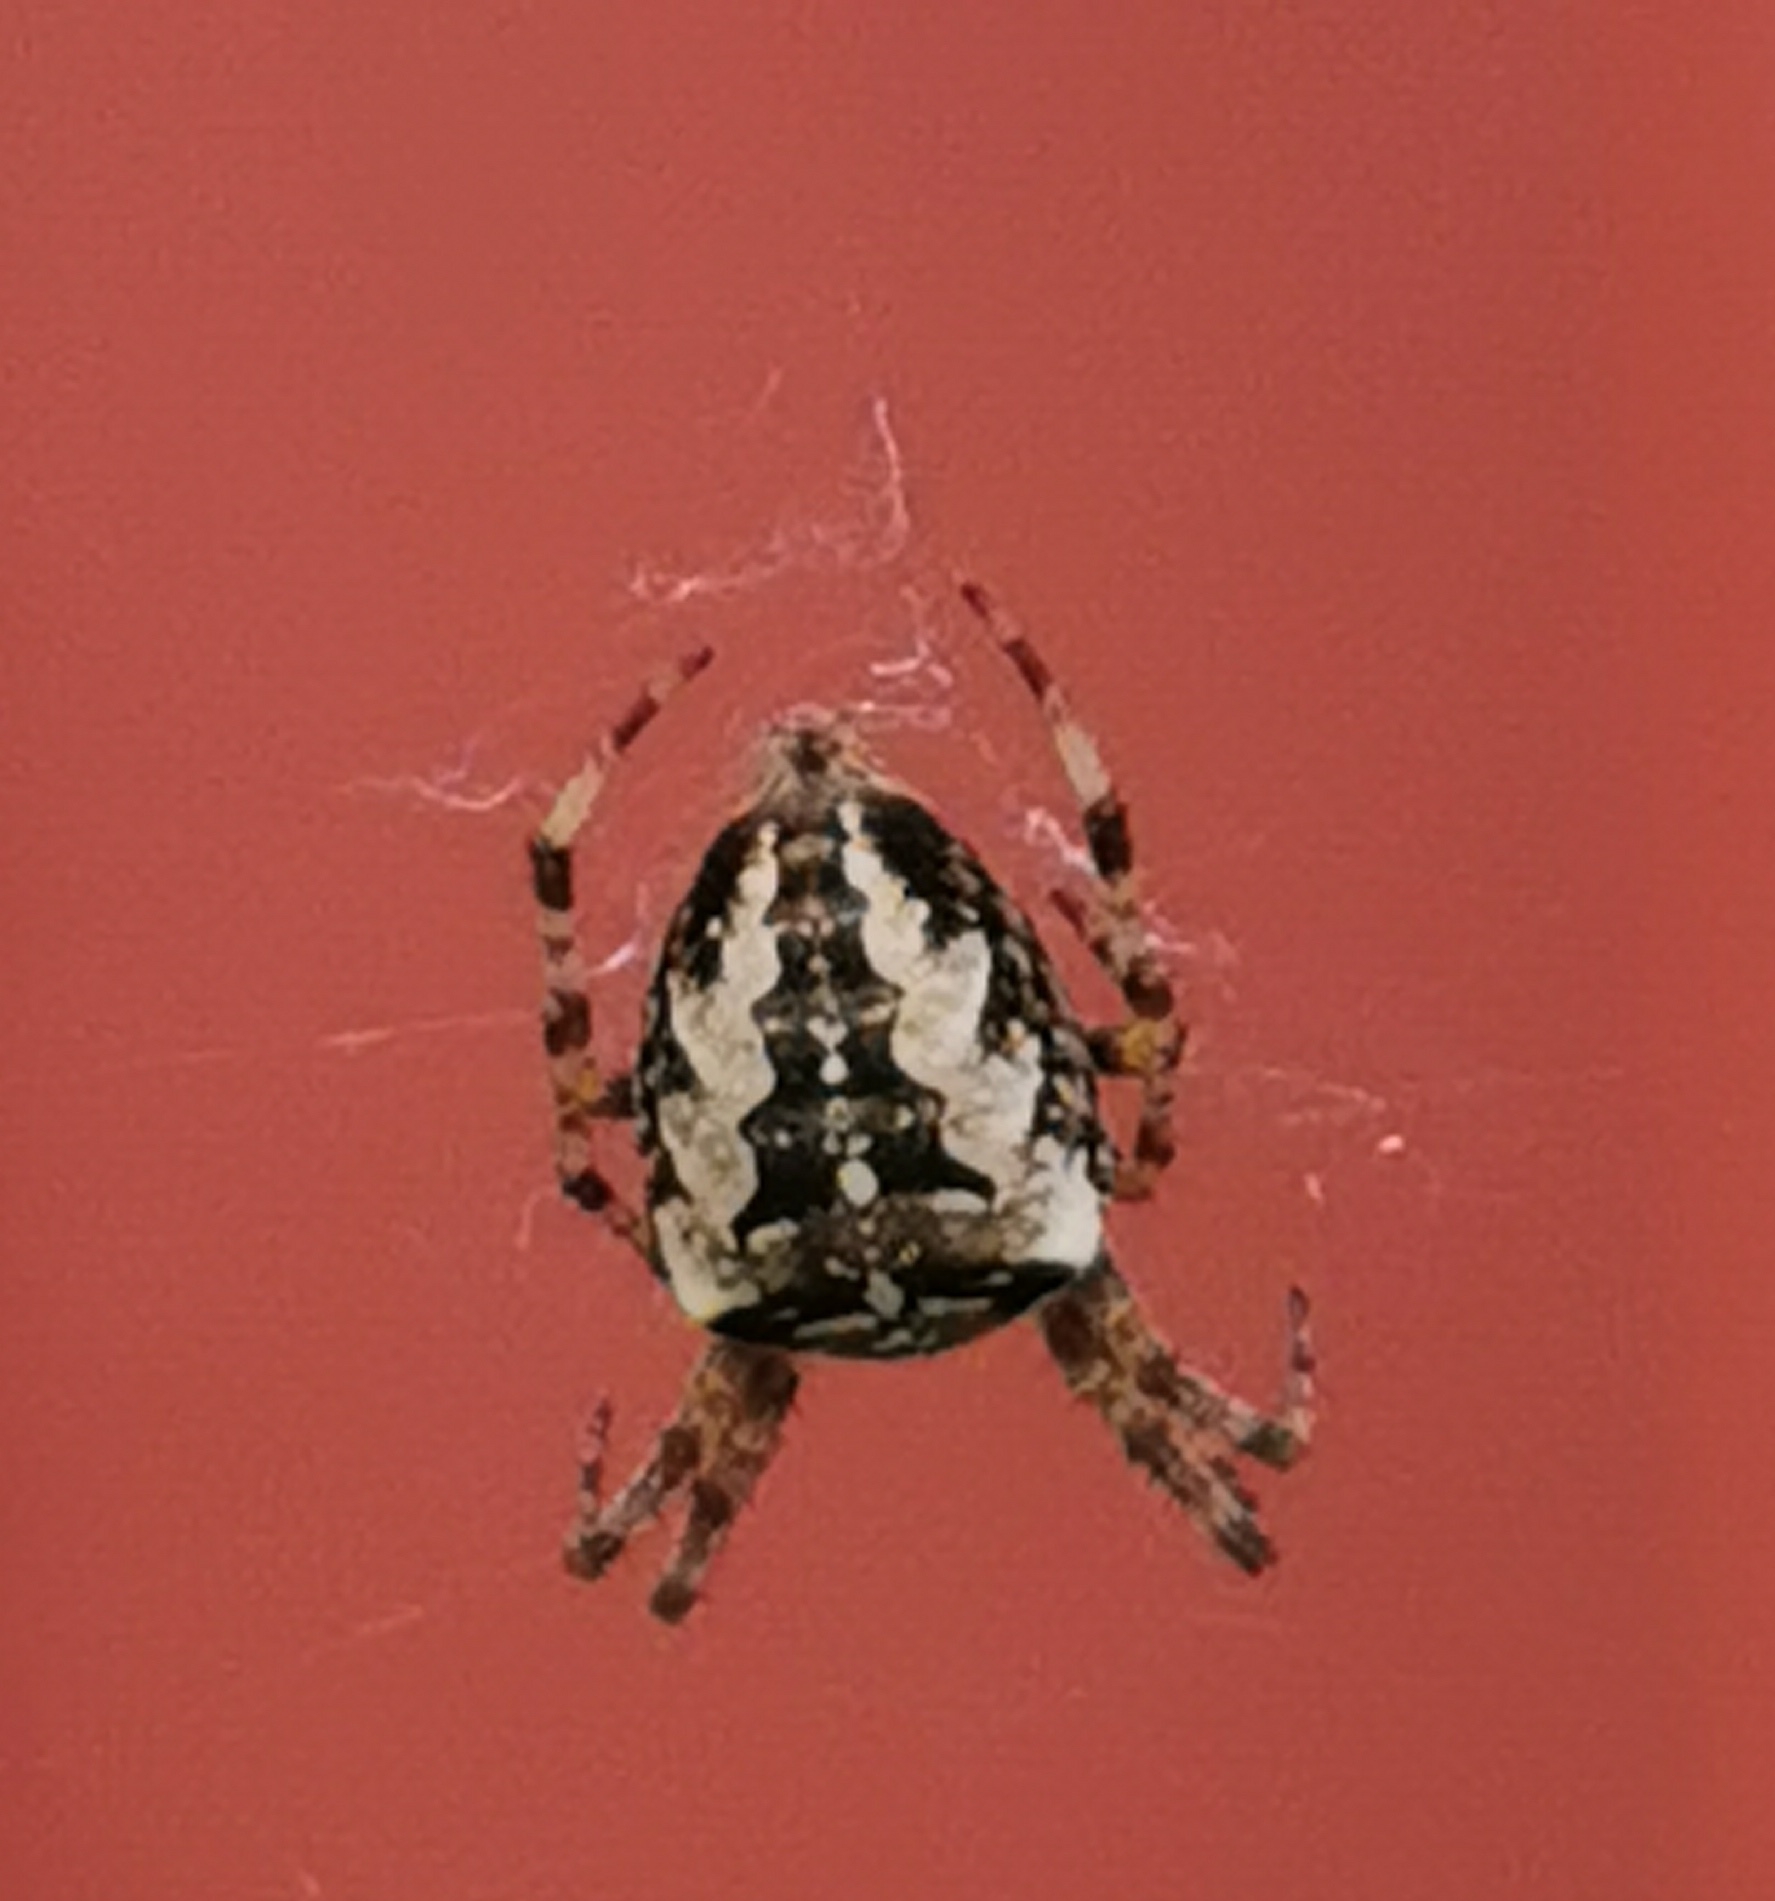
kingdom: Animalia
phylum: Arthropoda
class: Arachnida
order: Araneae
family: Araneidae
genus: Araneus
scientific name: Araneus diadematus
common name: Korsedderkop
